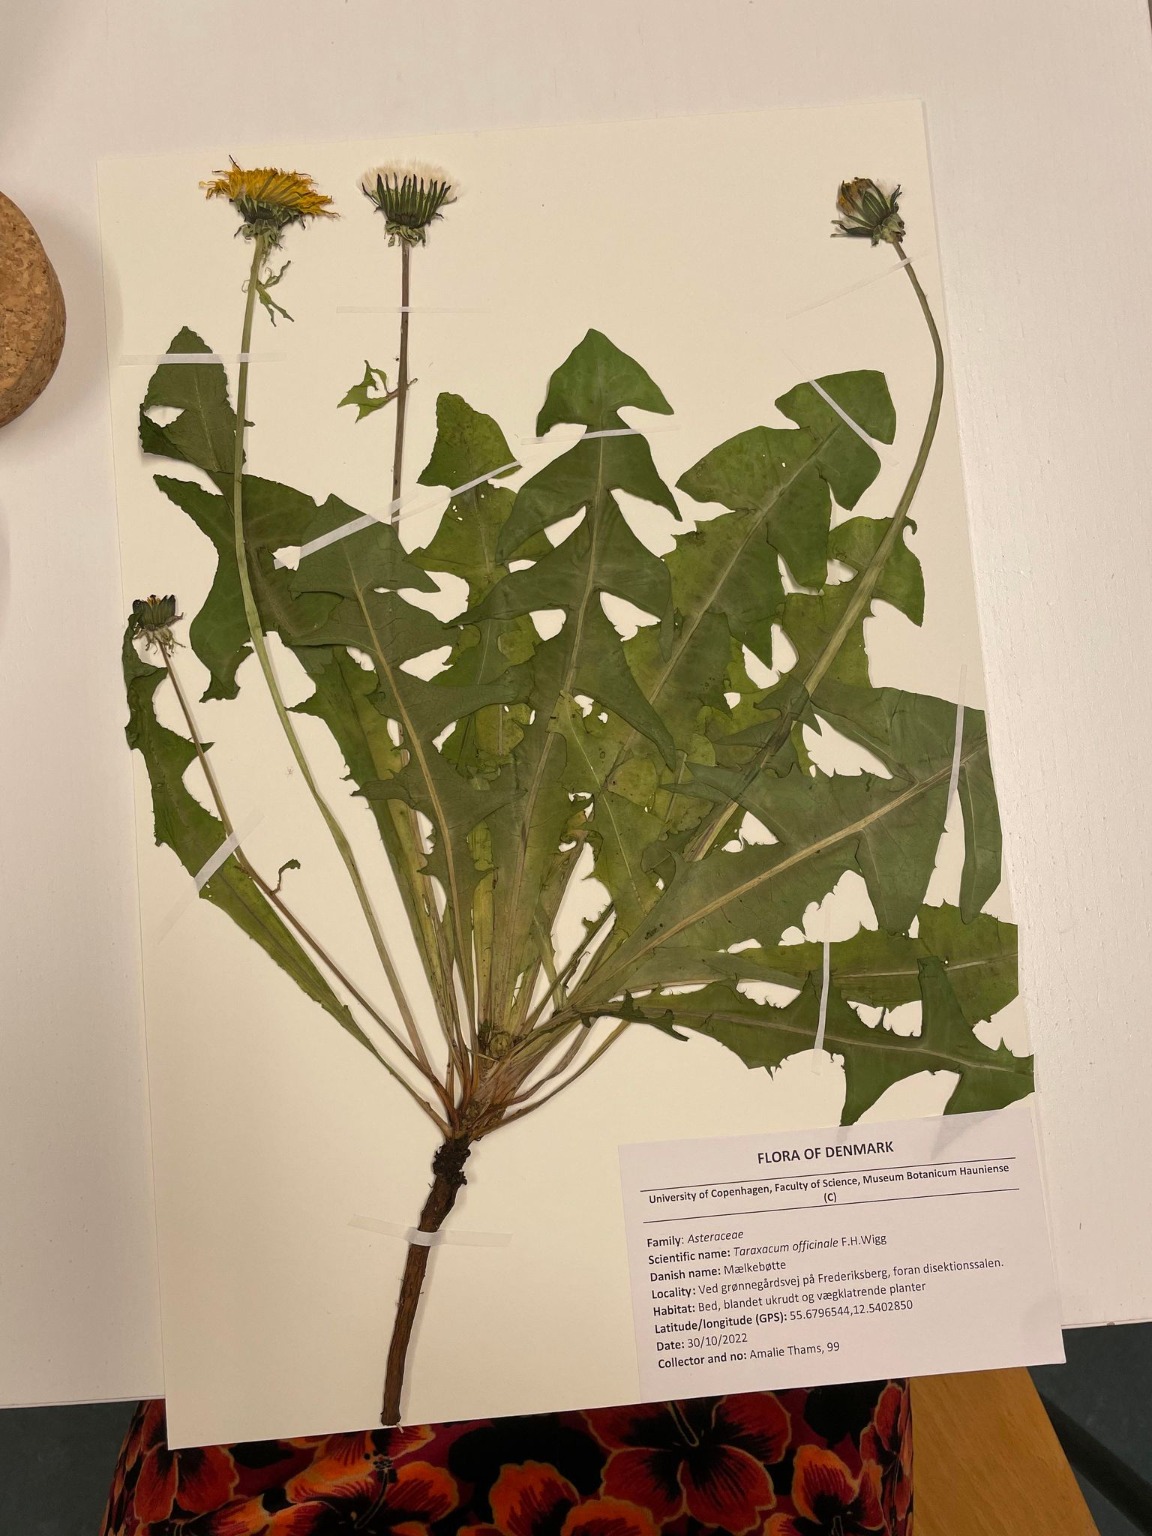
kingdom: Plantae
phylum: Tracheophyta
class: Magnoliopsida
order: Asterales
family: Asteraceae
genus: Taraxacum
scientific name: Taraxacum
